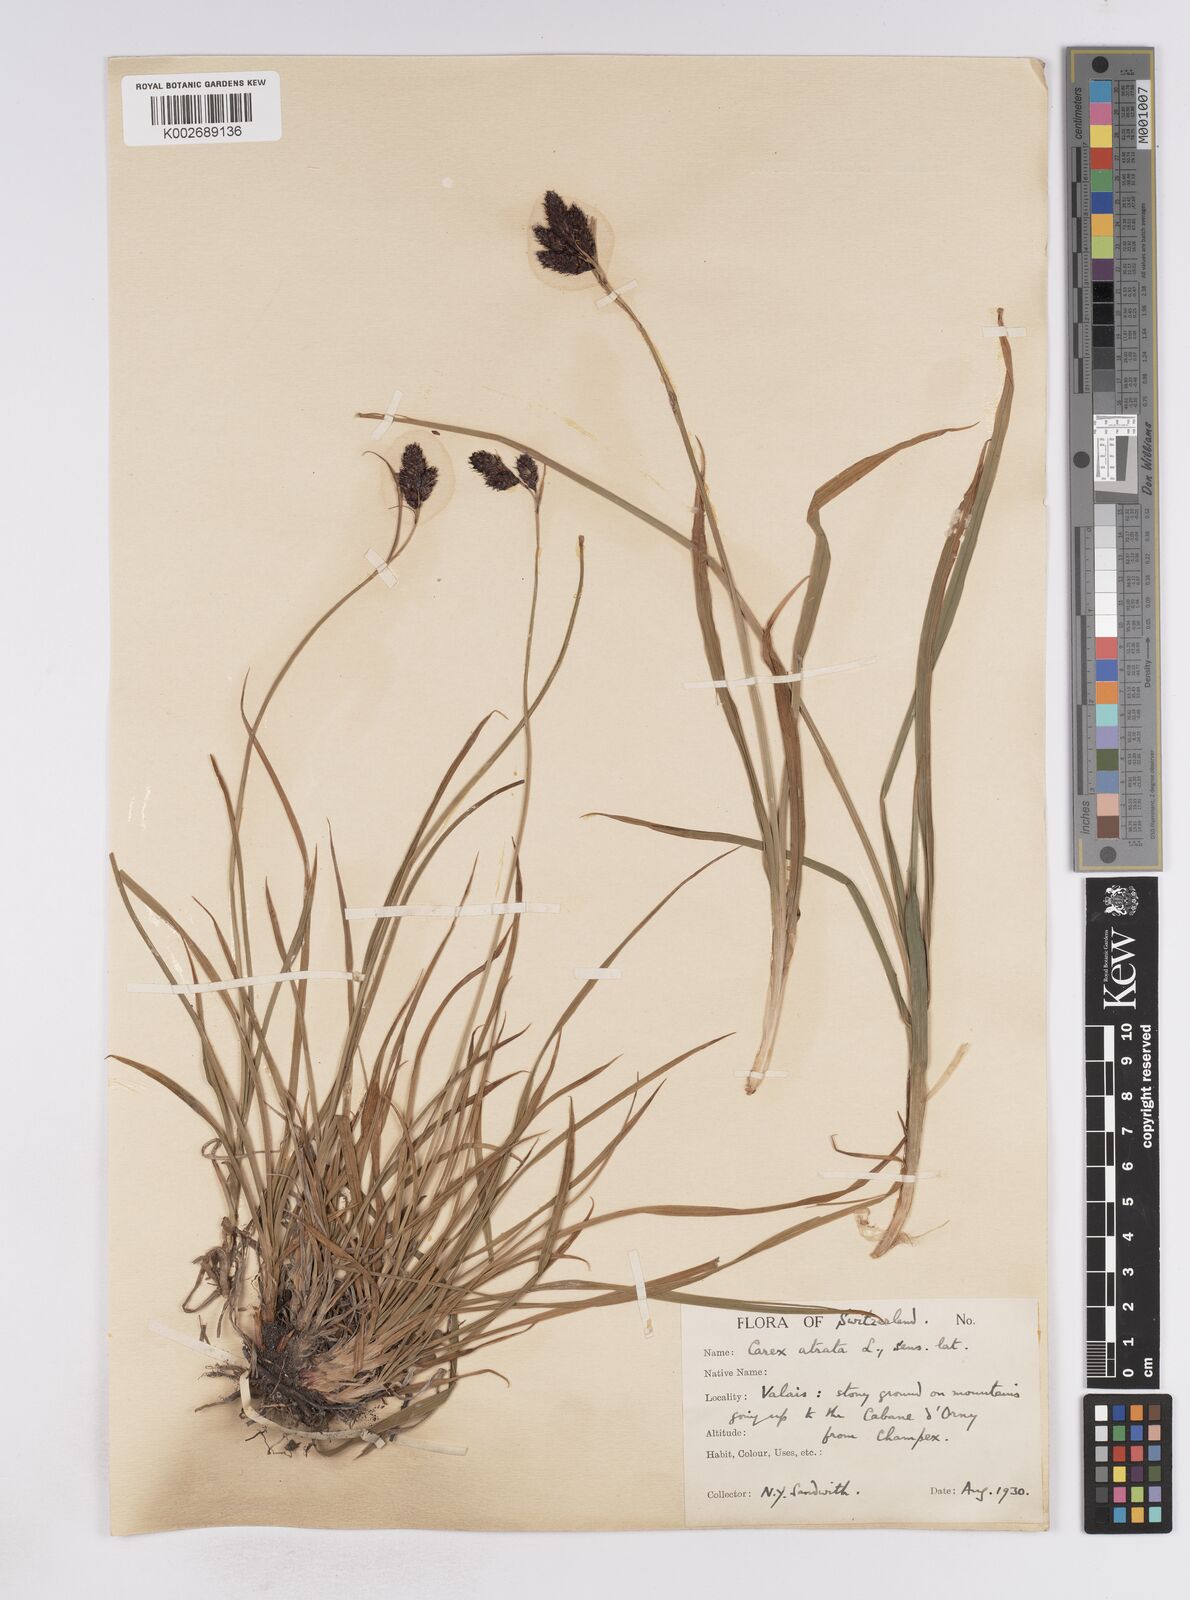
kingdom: Plantae
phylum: Tracheophyta
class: Liliopsida
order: Poales
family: Cyperaceae
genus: Carex
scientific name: Carex aterrima
